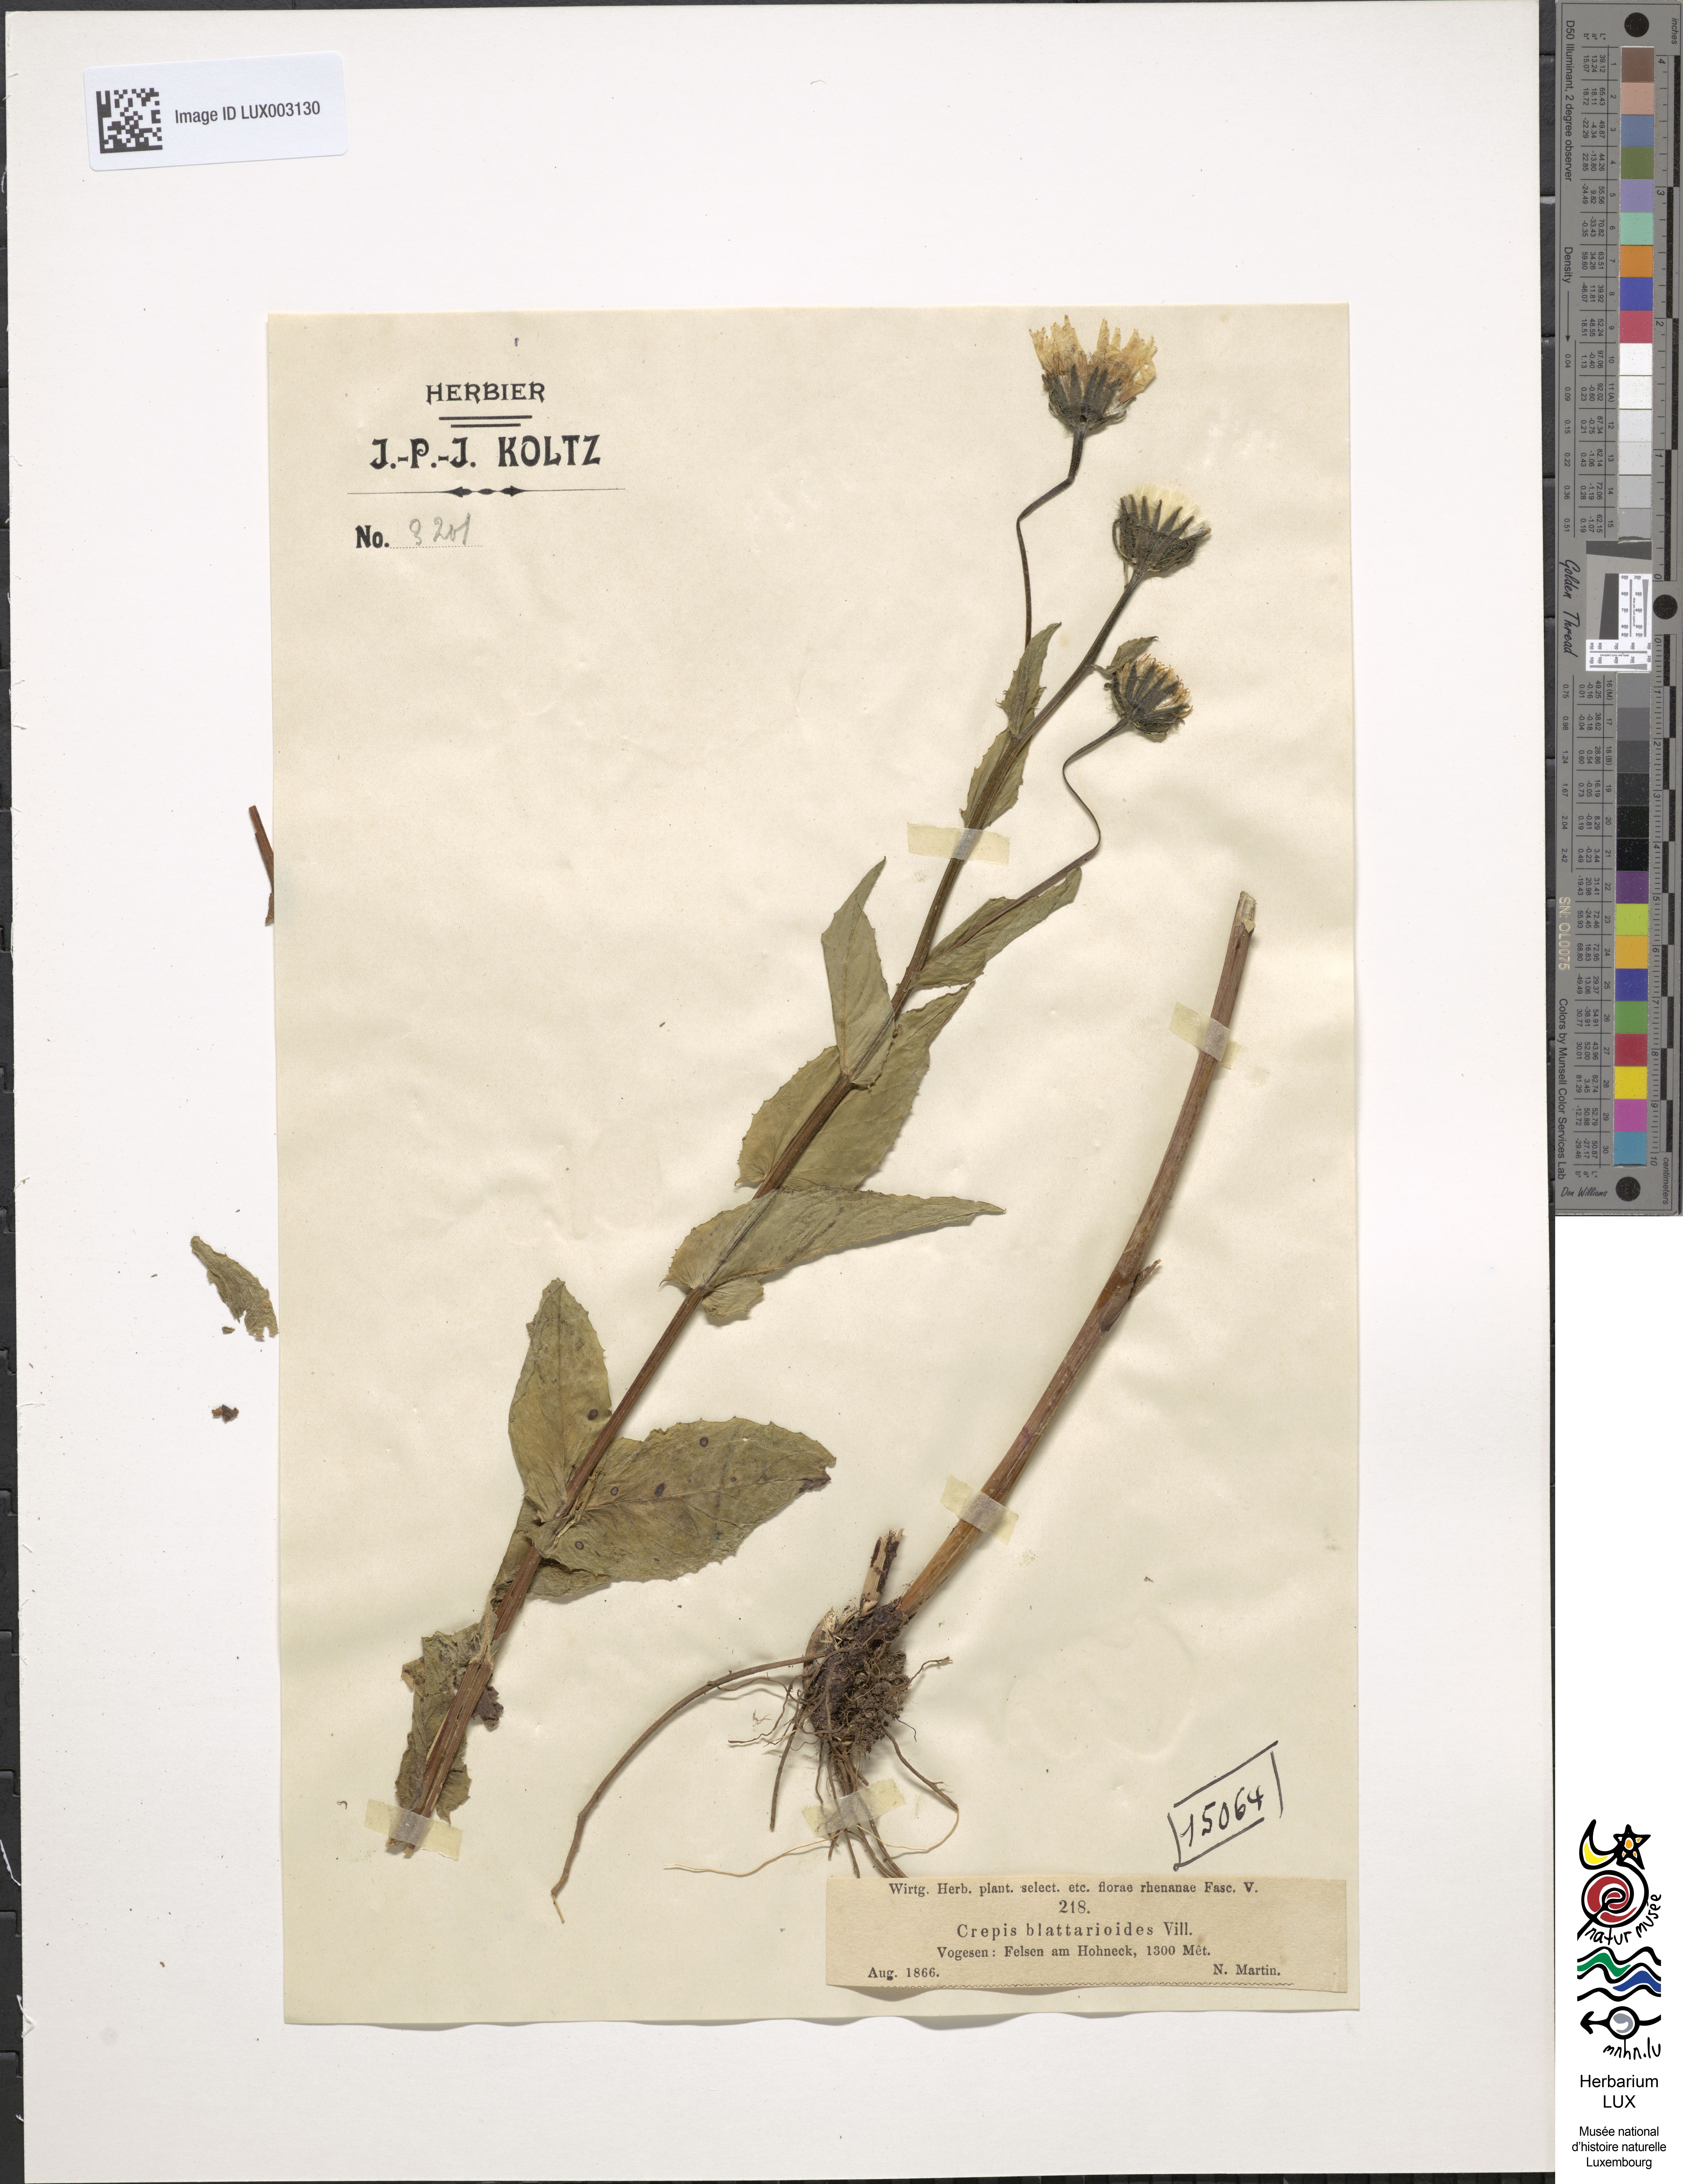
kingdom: Plantae
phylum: Tracheophyta
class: Magnoliopsida
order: Asterales
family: Asteraceae
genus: Crepis
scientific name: Crepis blattarioides
